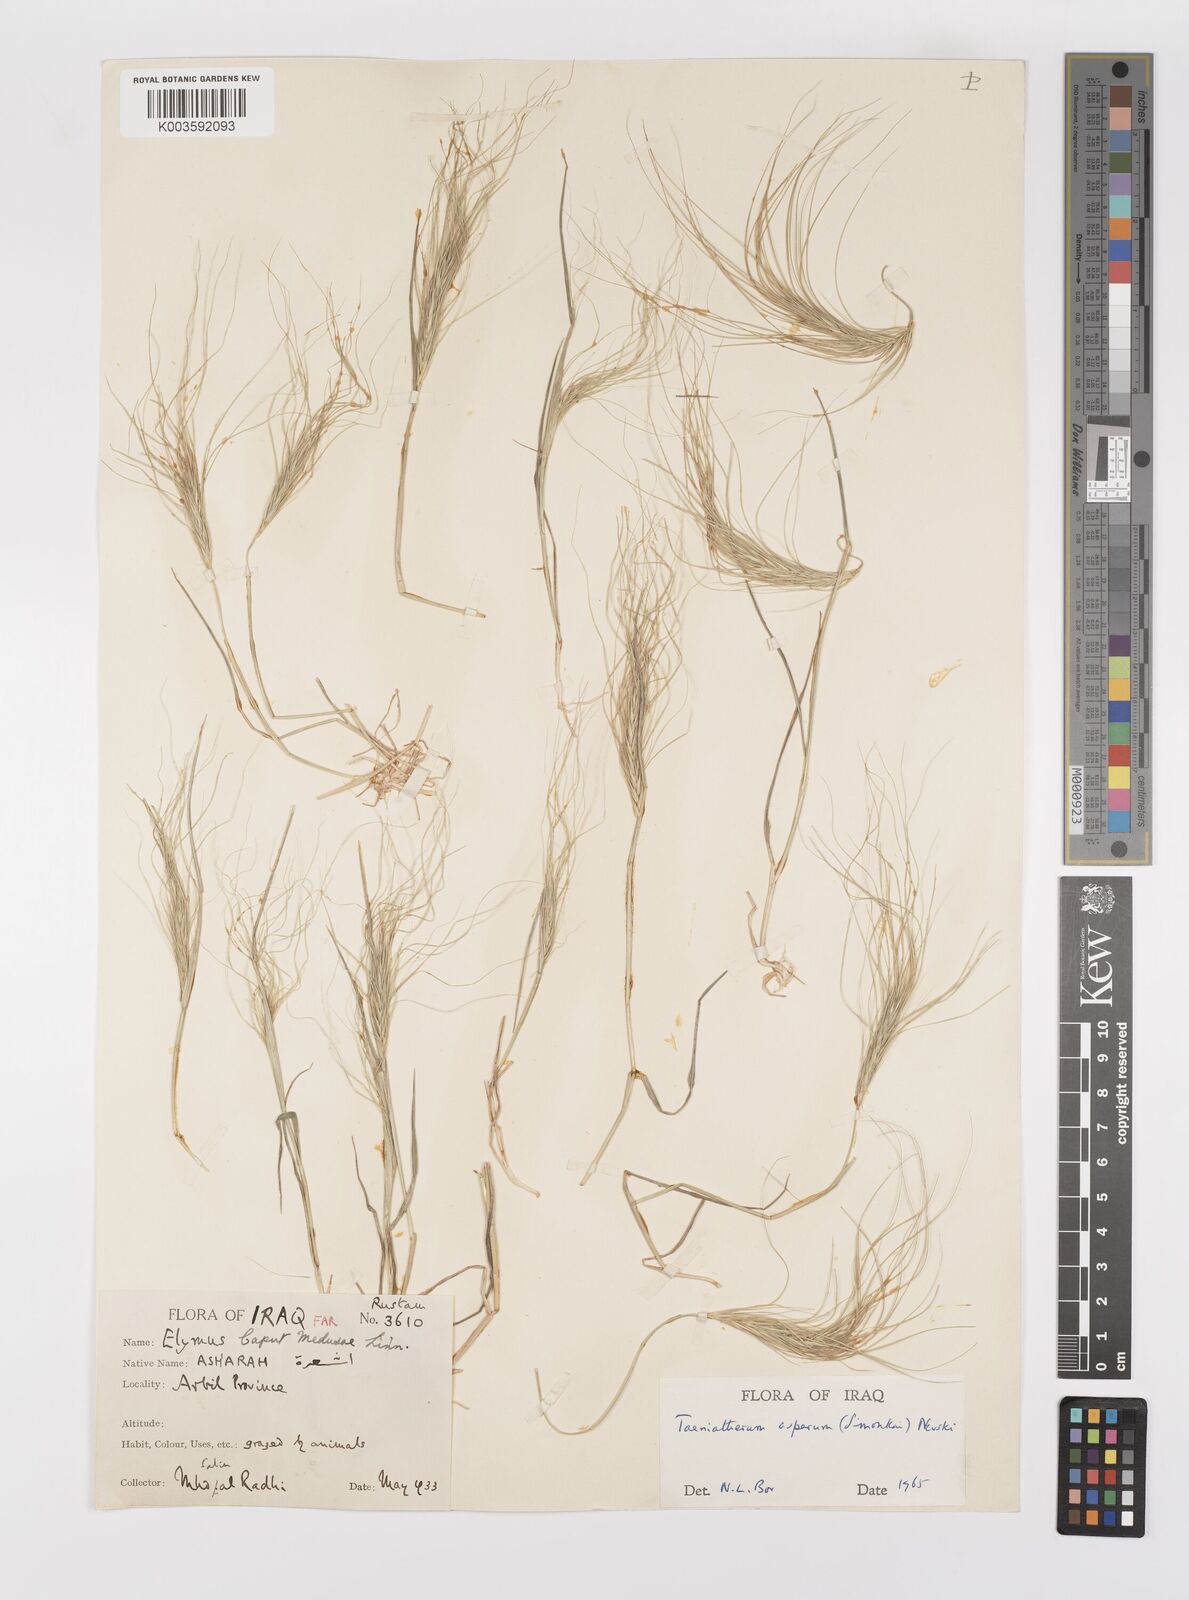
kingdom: Plantae
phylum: Tracheophyta
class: Liliopsida
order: Poales
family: Poaceae
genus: Taeniatherum
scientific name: Taeniatherum caput-medusae
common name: Medusahead
